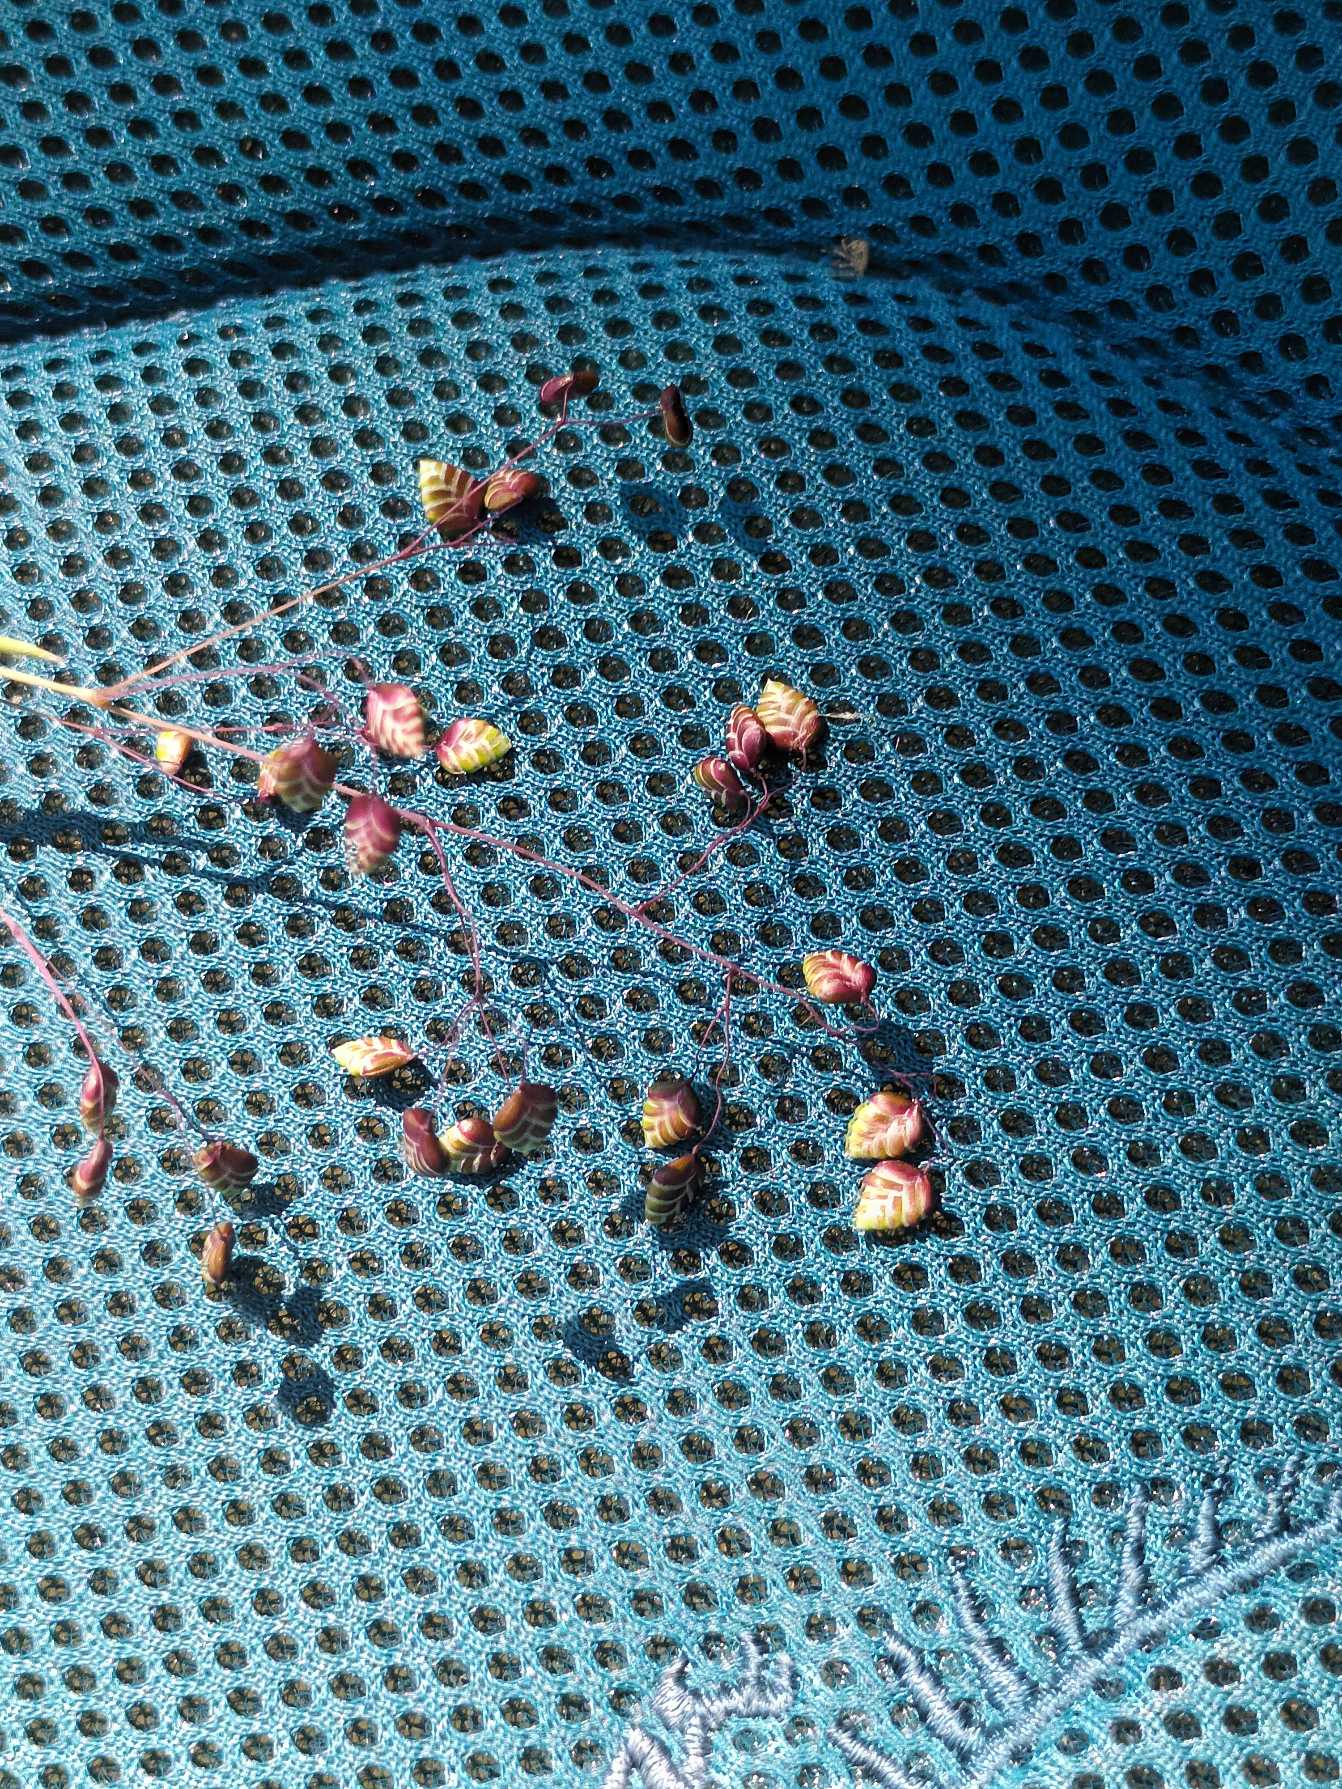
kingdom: Plantae
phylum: Tracheophyta
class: Liliopsida
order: Poales
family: Poaceae
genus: Briza
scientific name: Briza media
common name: Hjertegræs
